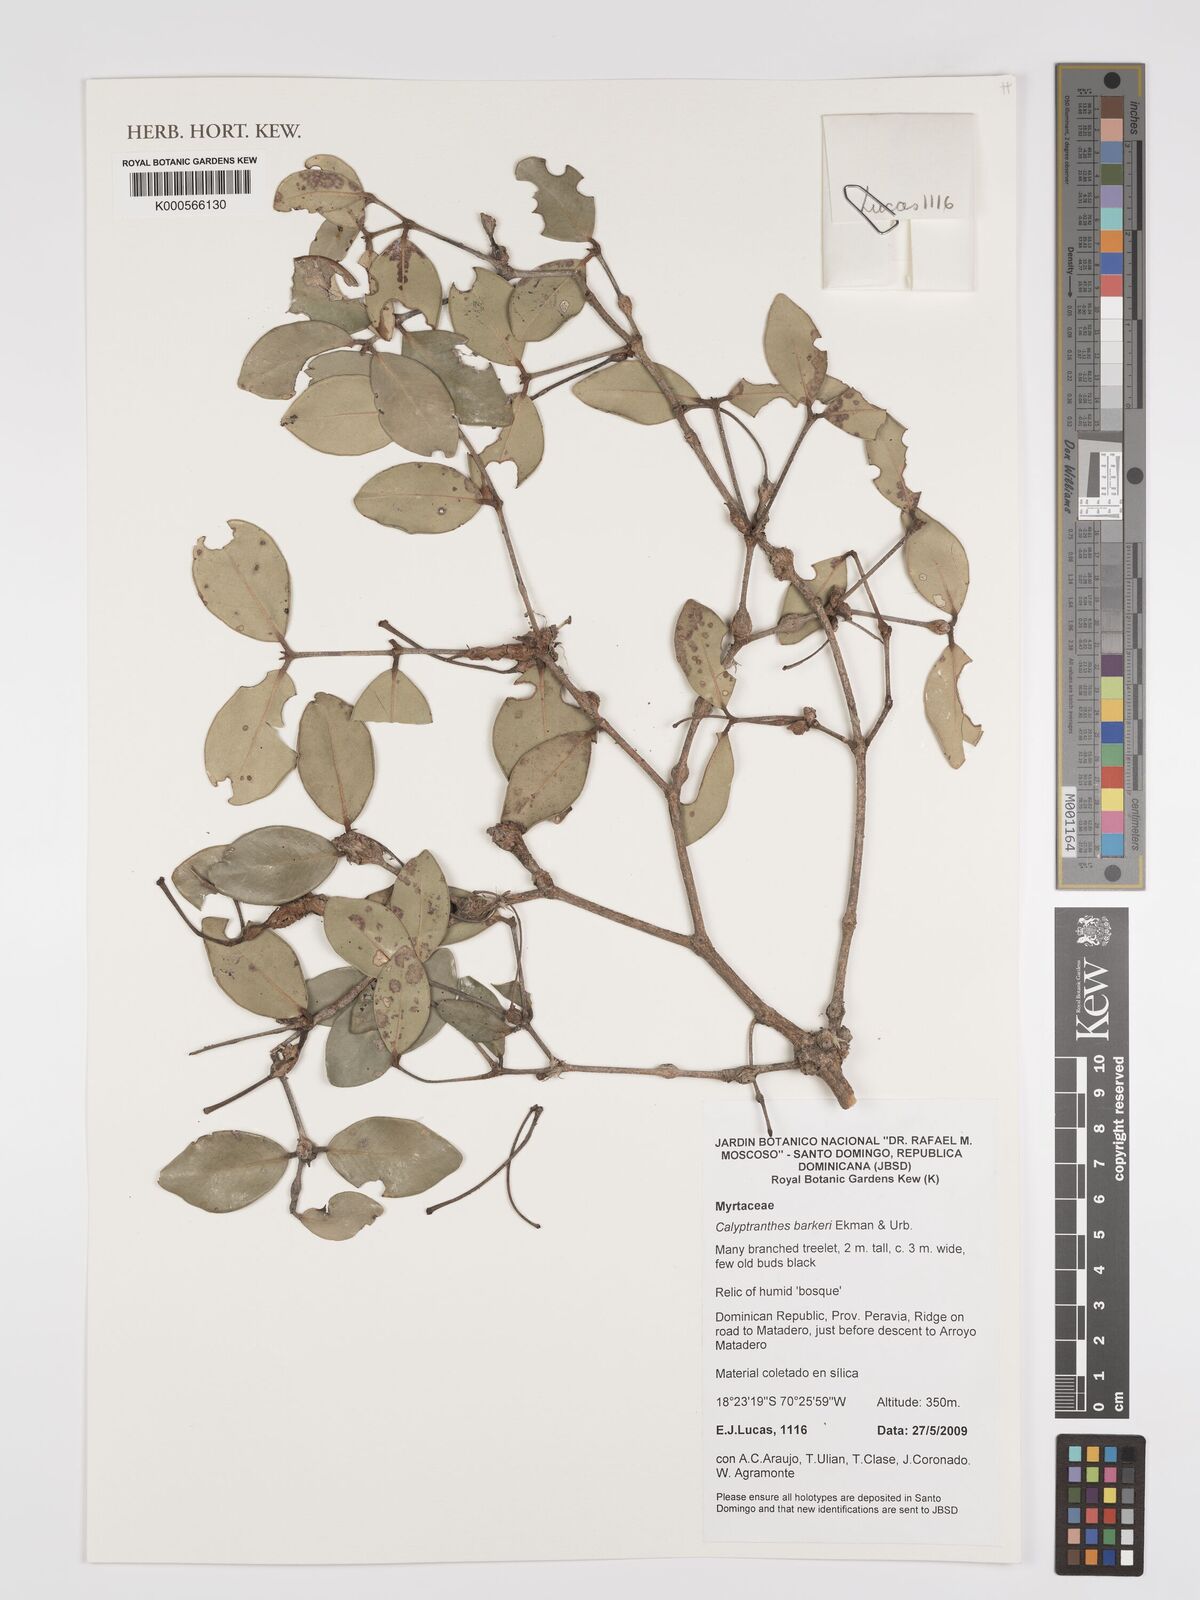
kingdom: Plantae
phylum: Tracheophyta
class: Magnoliopsida
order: Myrtales
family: Myrtaceae
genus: Myrcia
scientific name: Myrcia barkeri
